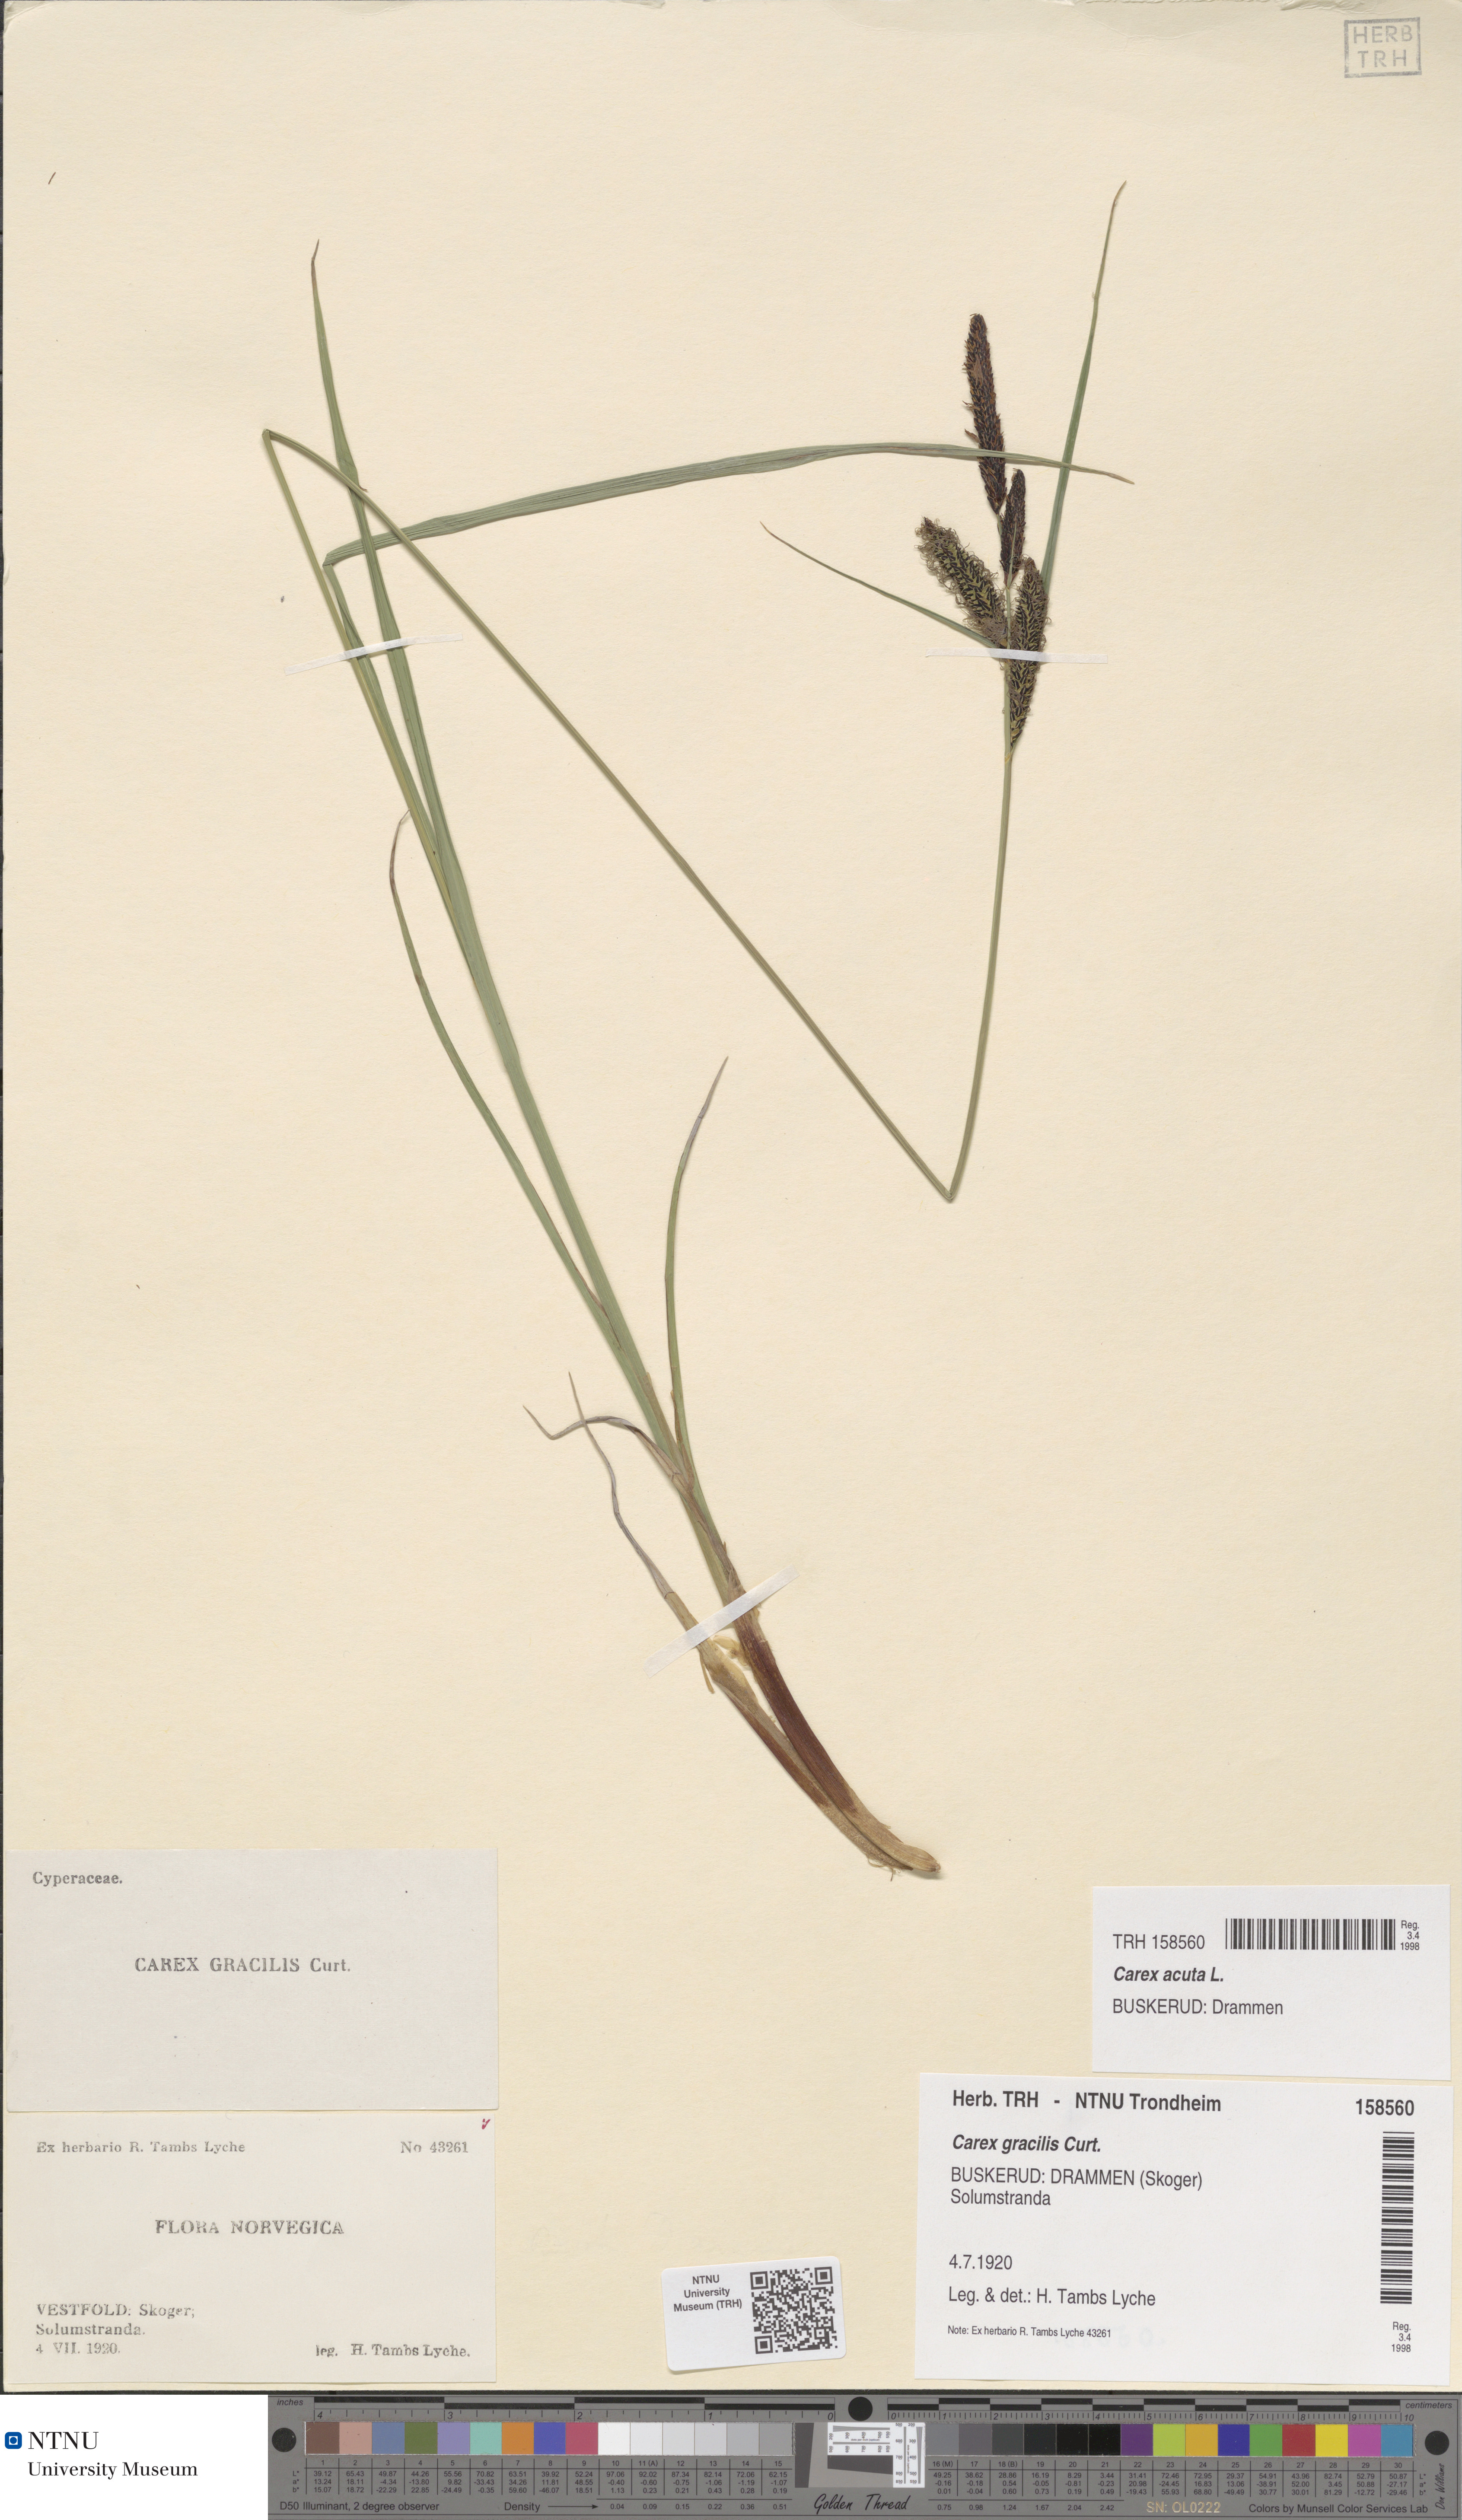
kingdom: Plantae
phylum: Tracheophyta
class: Liliopsida
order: Poales
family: Cyperaceae
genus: Carex
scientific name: Carex acuta
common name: Slender tufted-sedge
